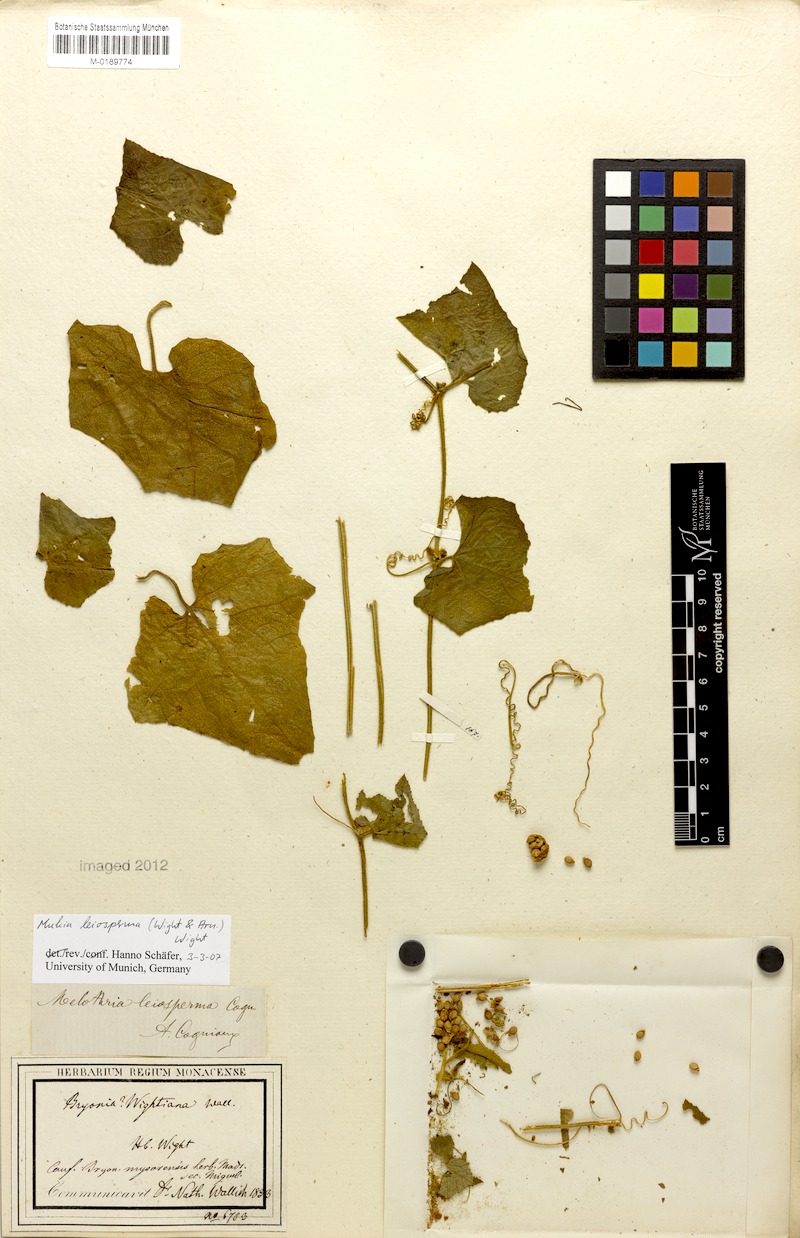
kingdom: Plantae
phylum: Tracheophyta
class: Magnoliopsida
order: Cucurbitales
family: Cucurbitaceae
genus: Cucumis
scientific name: Cucumis leiospermus
